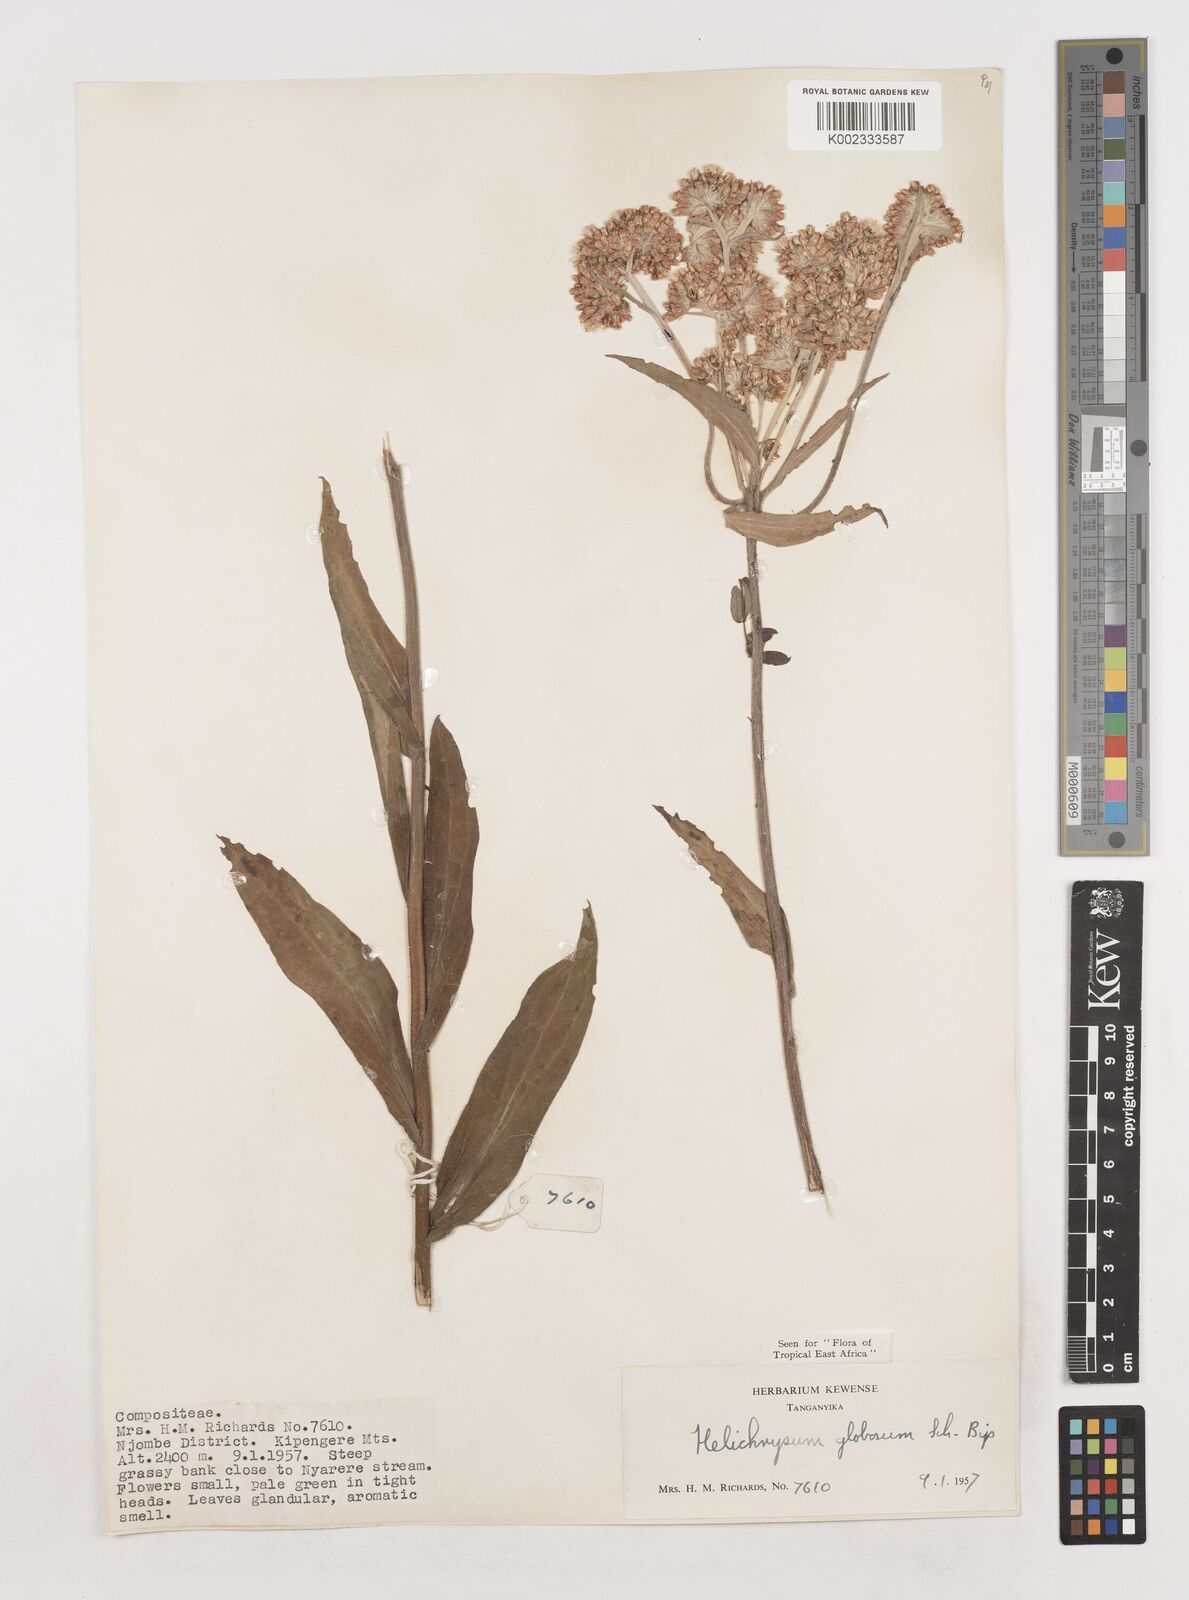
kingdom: Plantae
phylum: Tracheophyta
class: Magnoliopsida
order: Asterales
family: Asteraceae
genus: Helichrysum
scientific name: Helichrysum globosum
